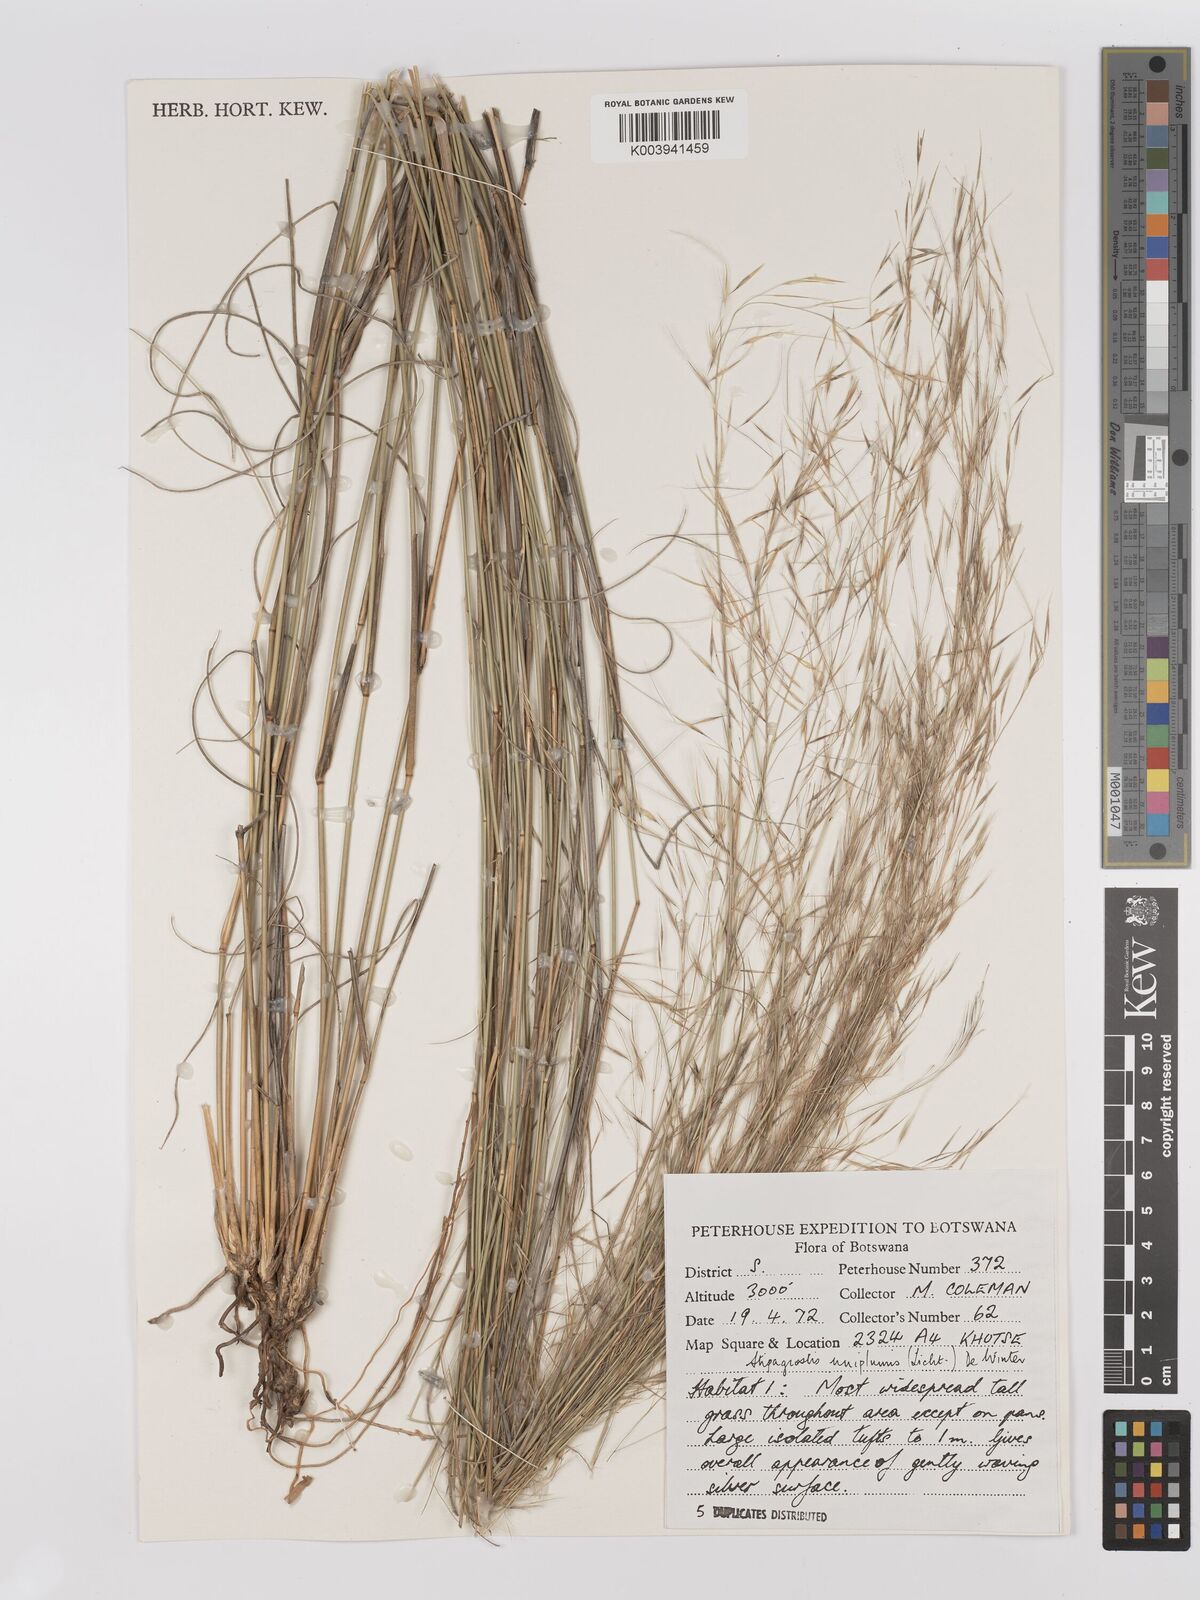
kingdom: Plantae
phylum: Tracheophyta
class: Liliopsida
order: Poales
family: Poaceae
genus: Stipagrostis
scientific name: Stipagrostis uniplumis
